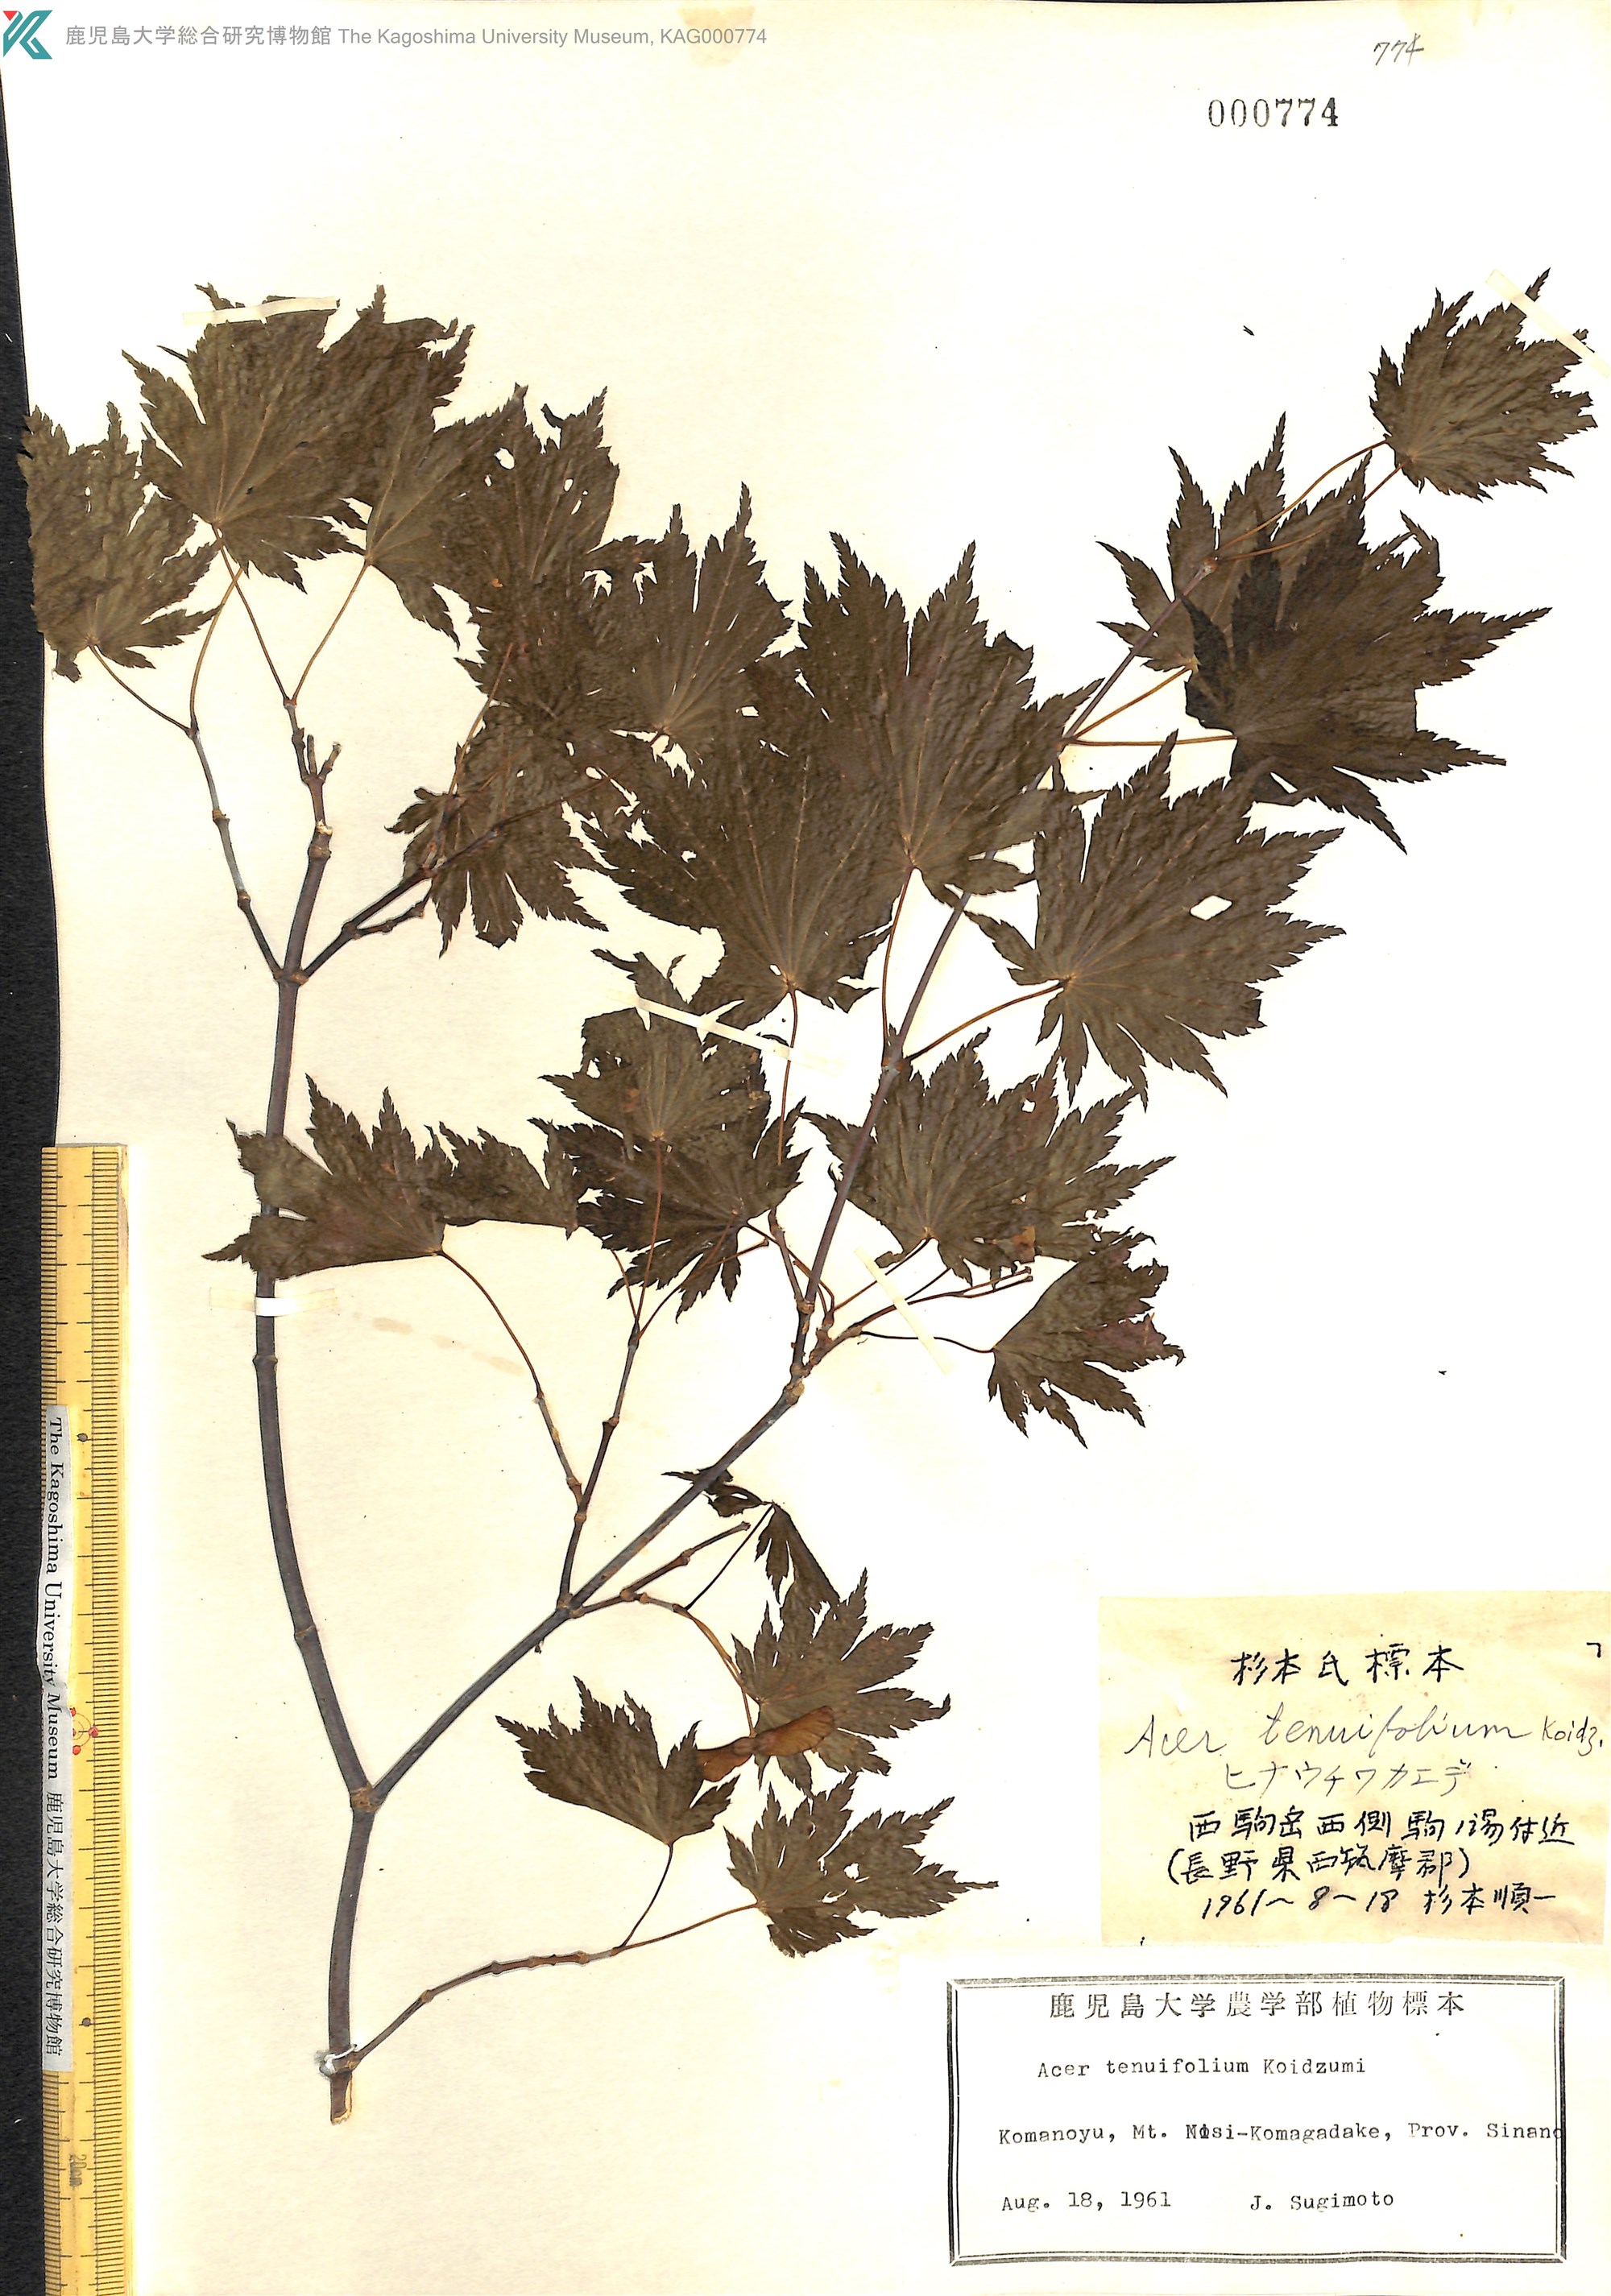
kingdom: Plantae
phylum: Tracheophyta
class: Magnoliopsida
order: Sapindales
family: Sapindaceae
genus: Acer
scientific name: Acer shirasawanum
